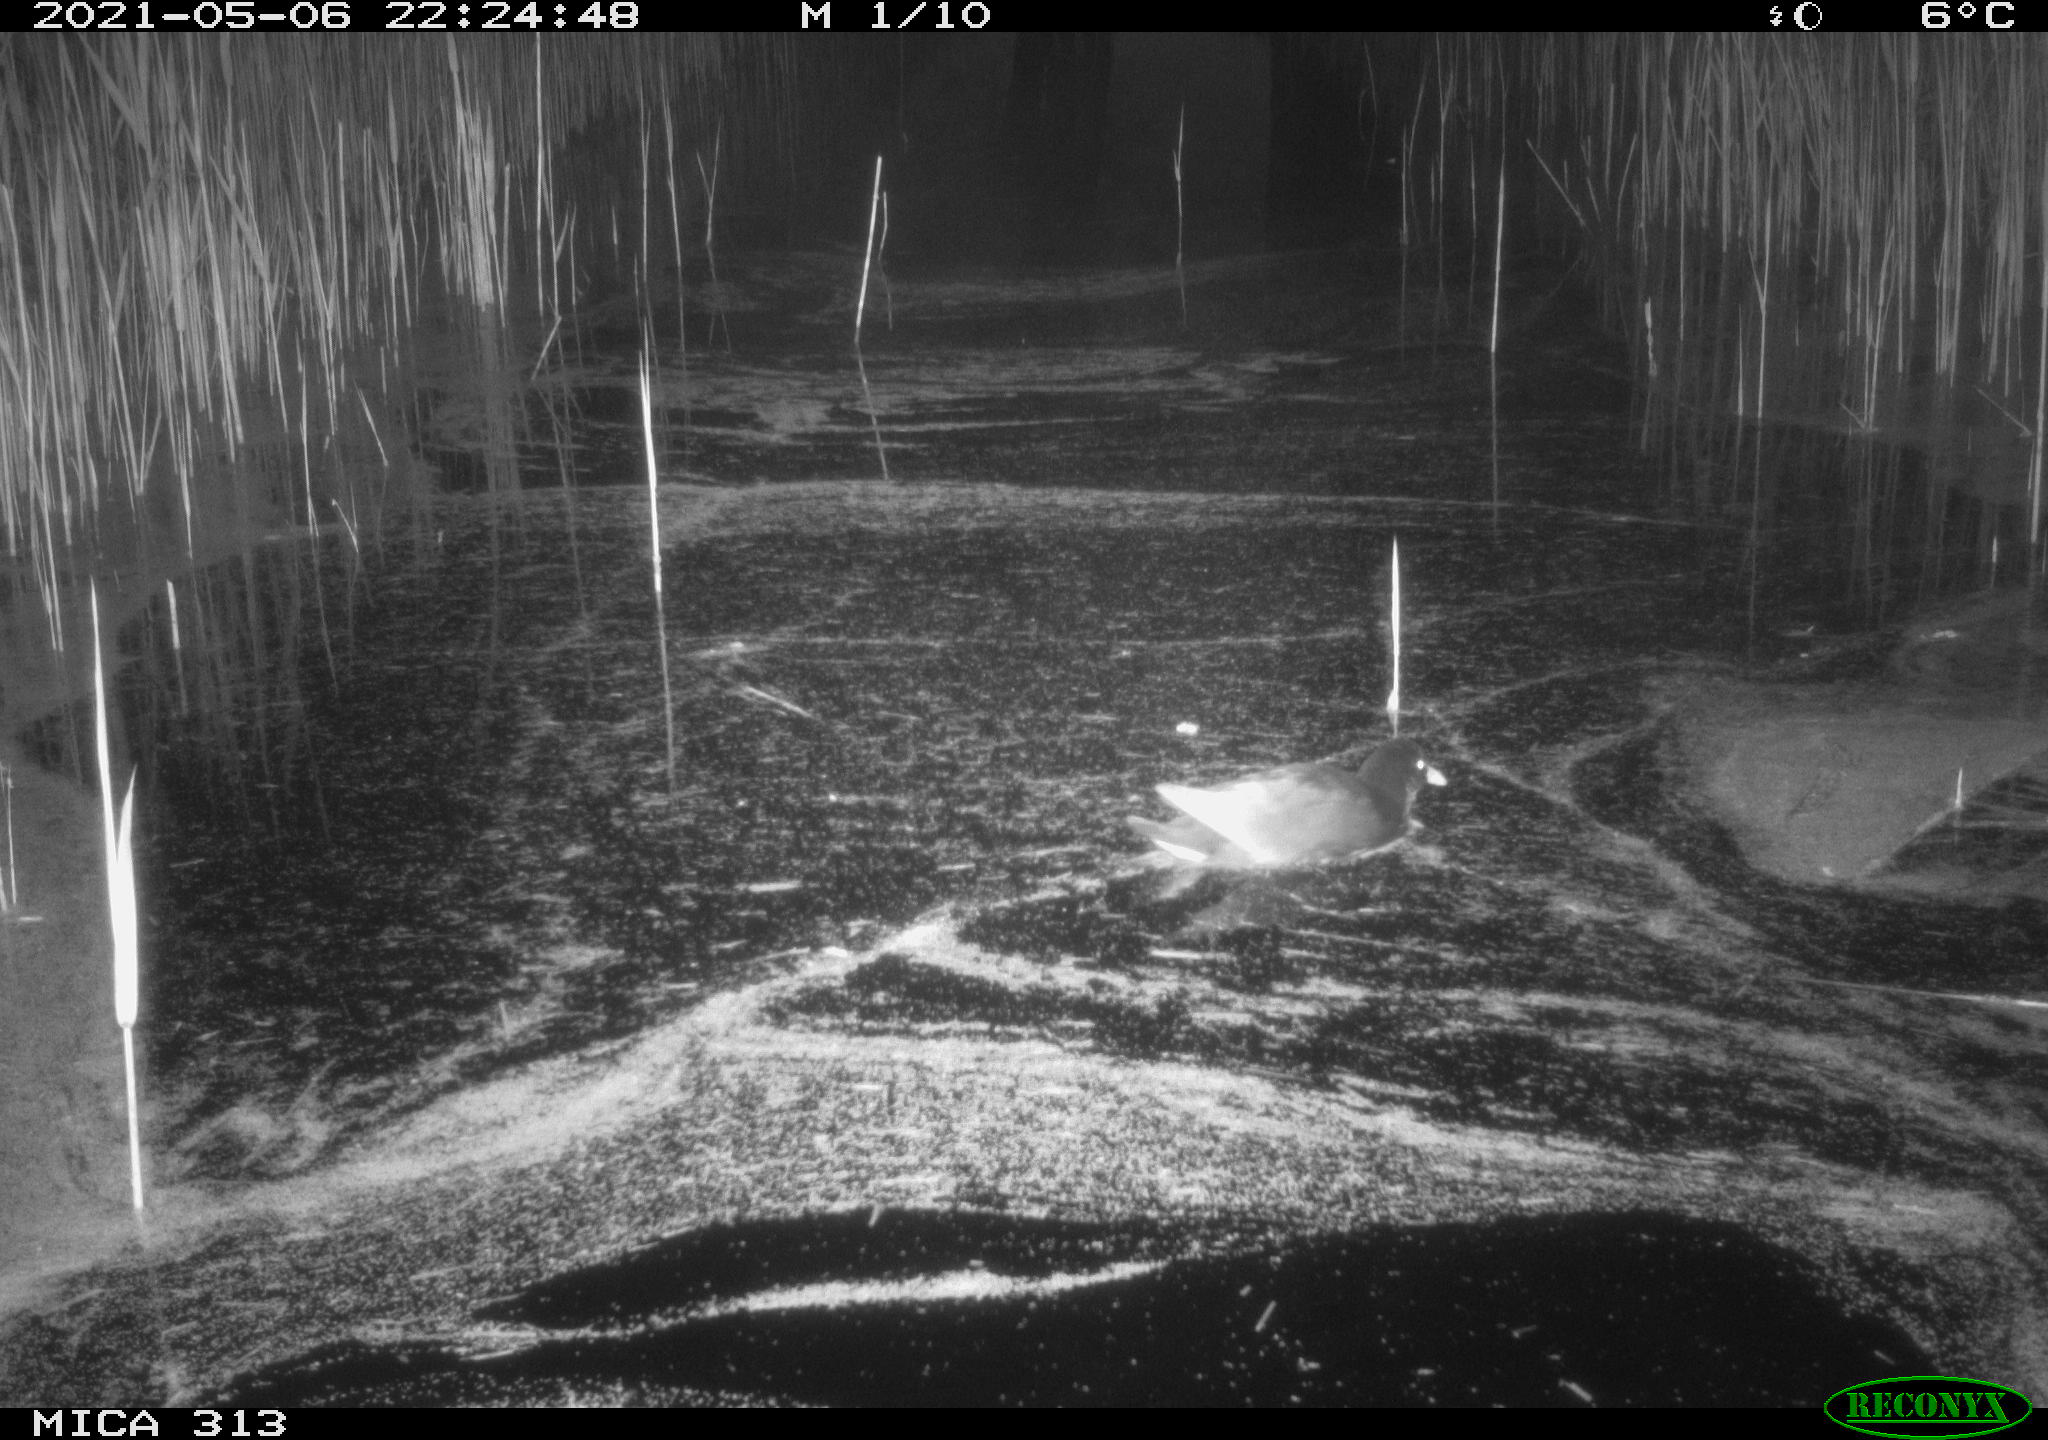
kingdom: Animalia
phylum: Chordata
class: Aves
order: Gruiformes
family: Rallidae
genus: Gallinula
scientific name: Gallinula chloropus
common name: Common moorhen
